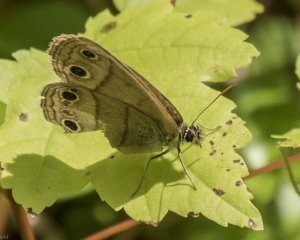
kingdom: Animalia
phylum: Arthropoda
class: Insecta
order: Lepidoptera
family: Nymphalidae
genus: Euptychia
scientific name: Euptychia cymela
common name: Little Wood Satyr
